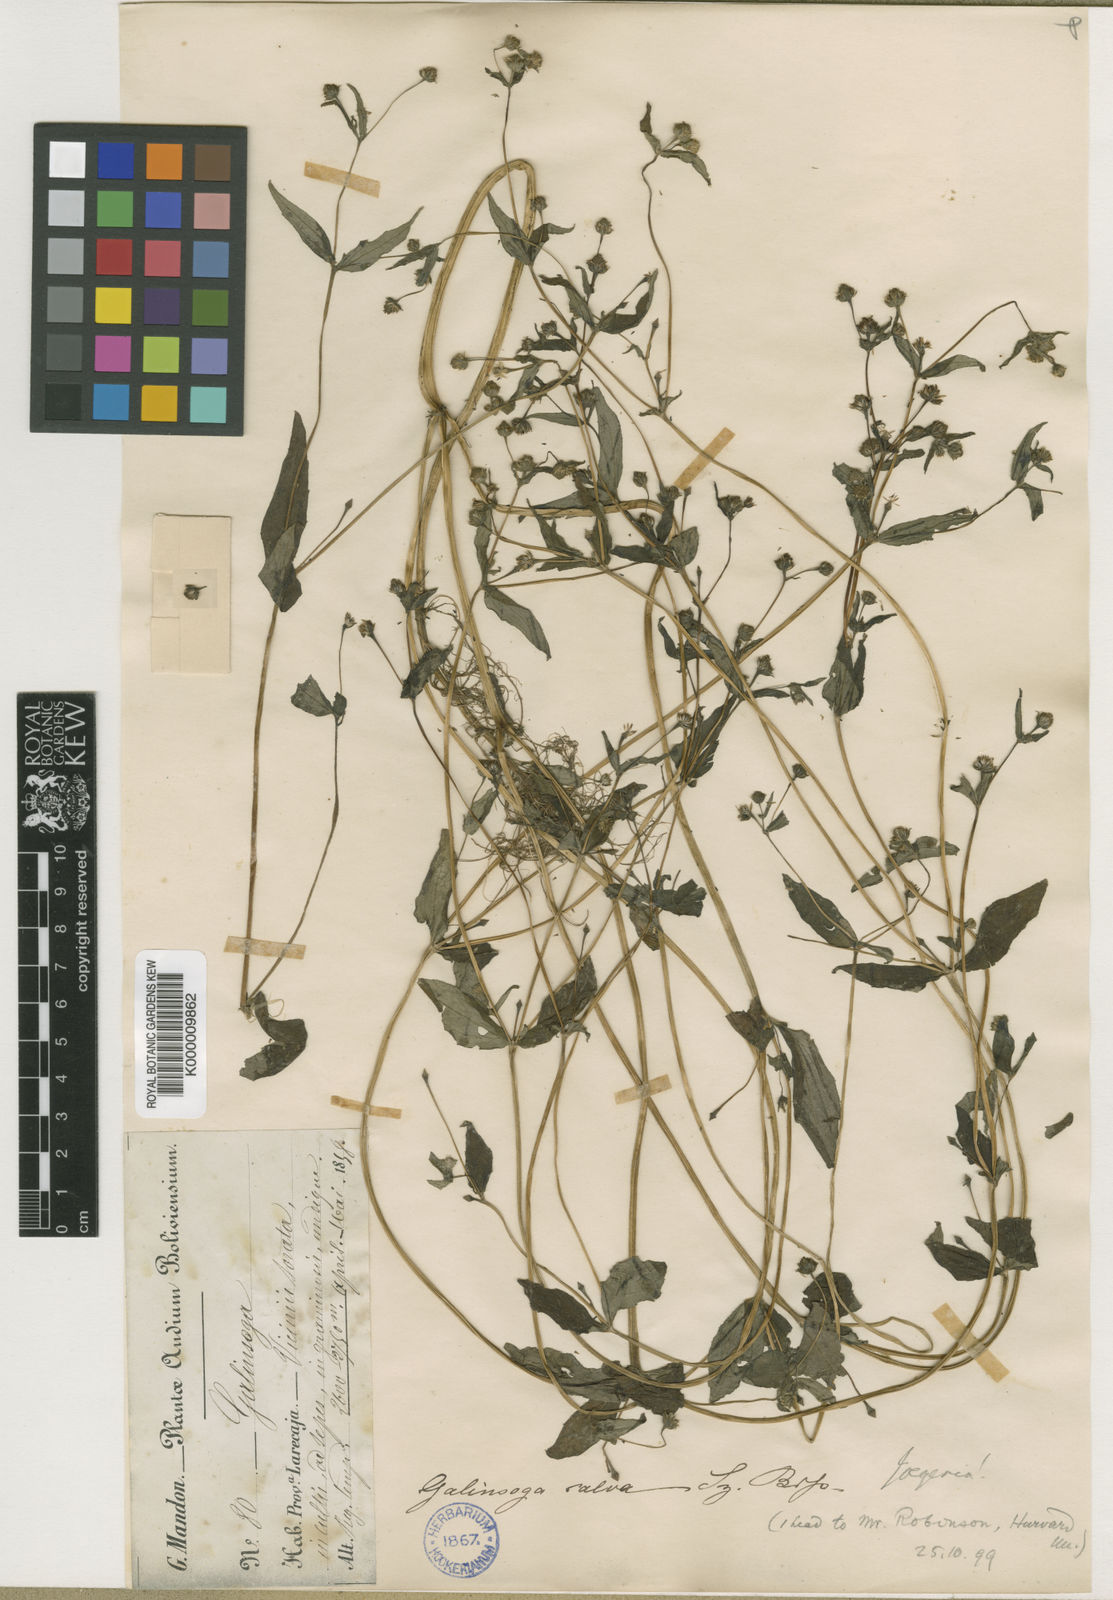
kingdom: Plantae
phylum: Tracheophyta
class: Magnoliopsida
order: Asterales
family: Asteraceae
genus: Jaegeria
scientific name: Jaegeria hirta
